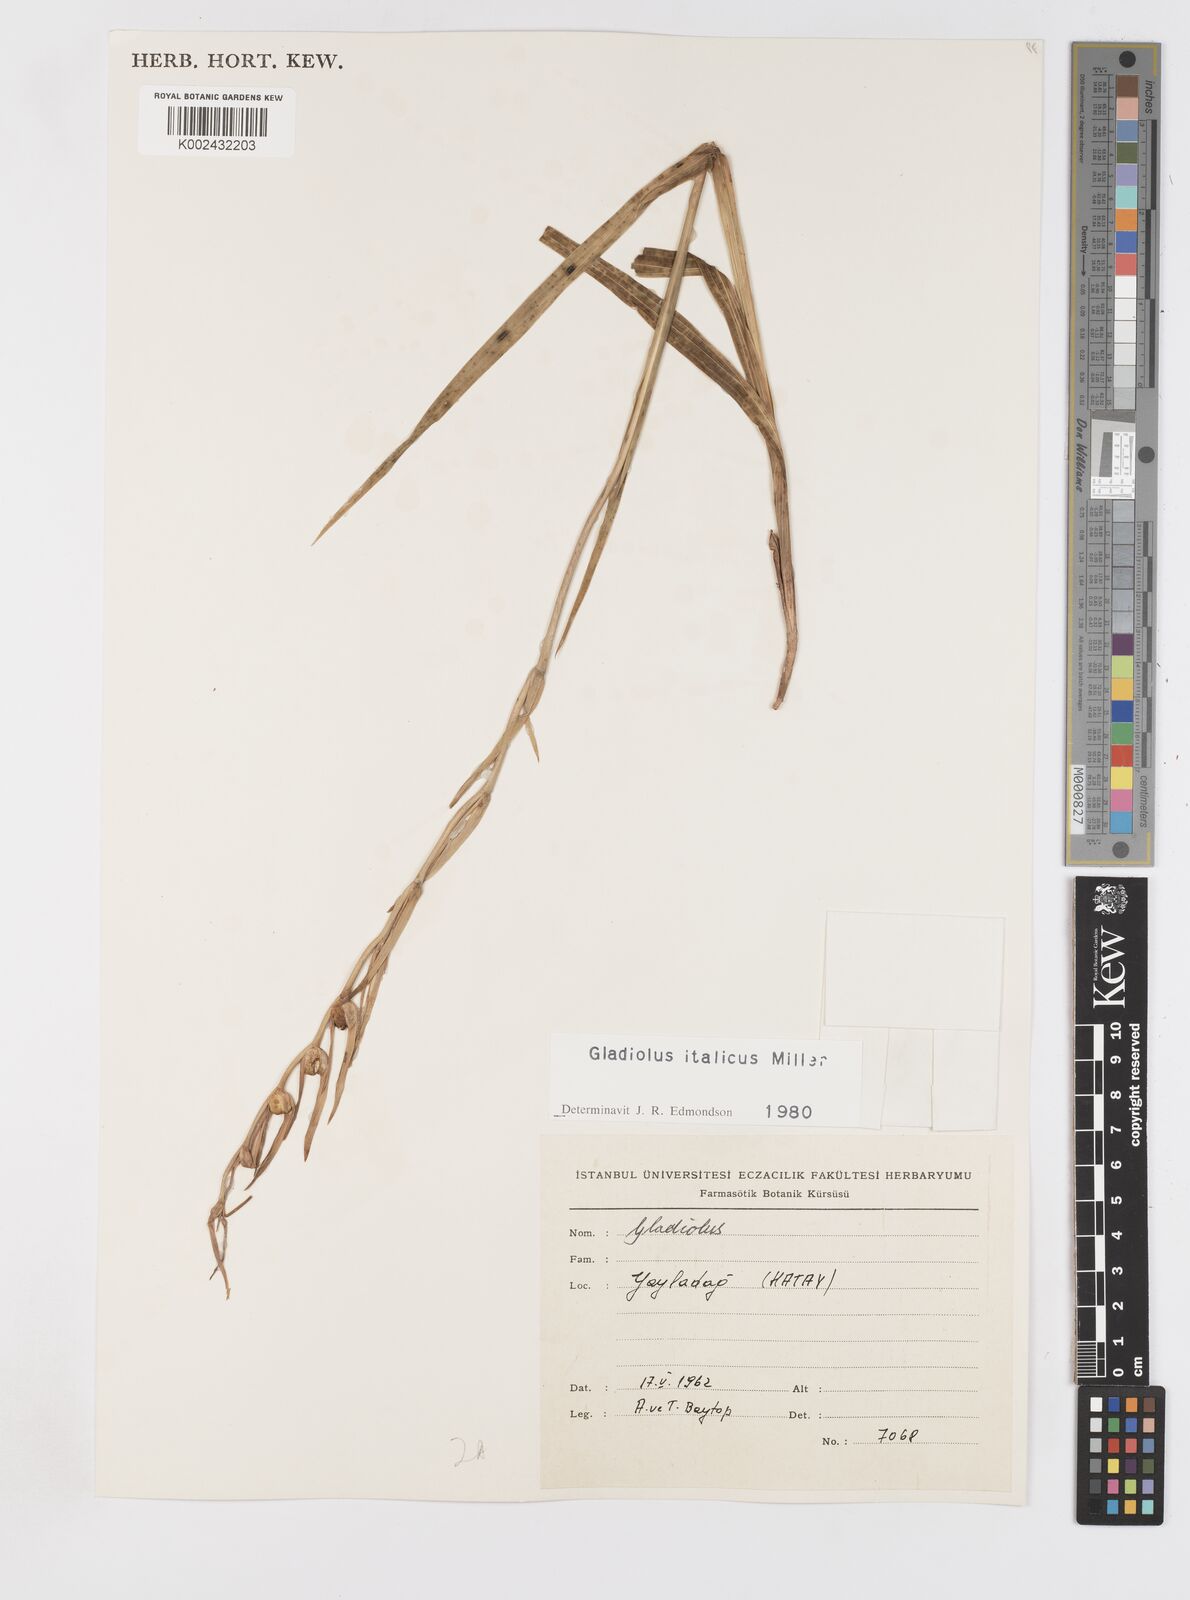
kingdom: Plantae
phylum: Tracheophyta
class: Liliopsida
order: Asparagales
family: Iridaceae
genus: Gladiolus
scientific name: Gladiolus italicus
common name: Field gladiolus
